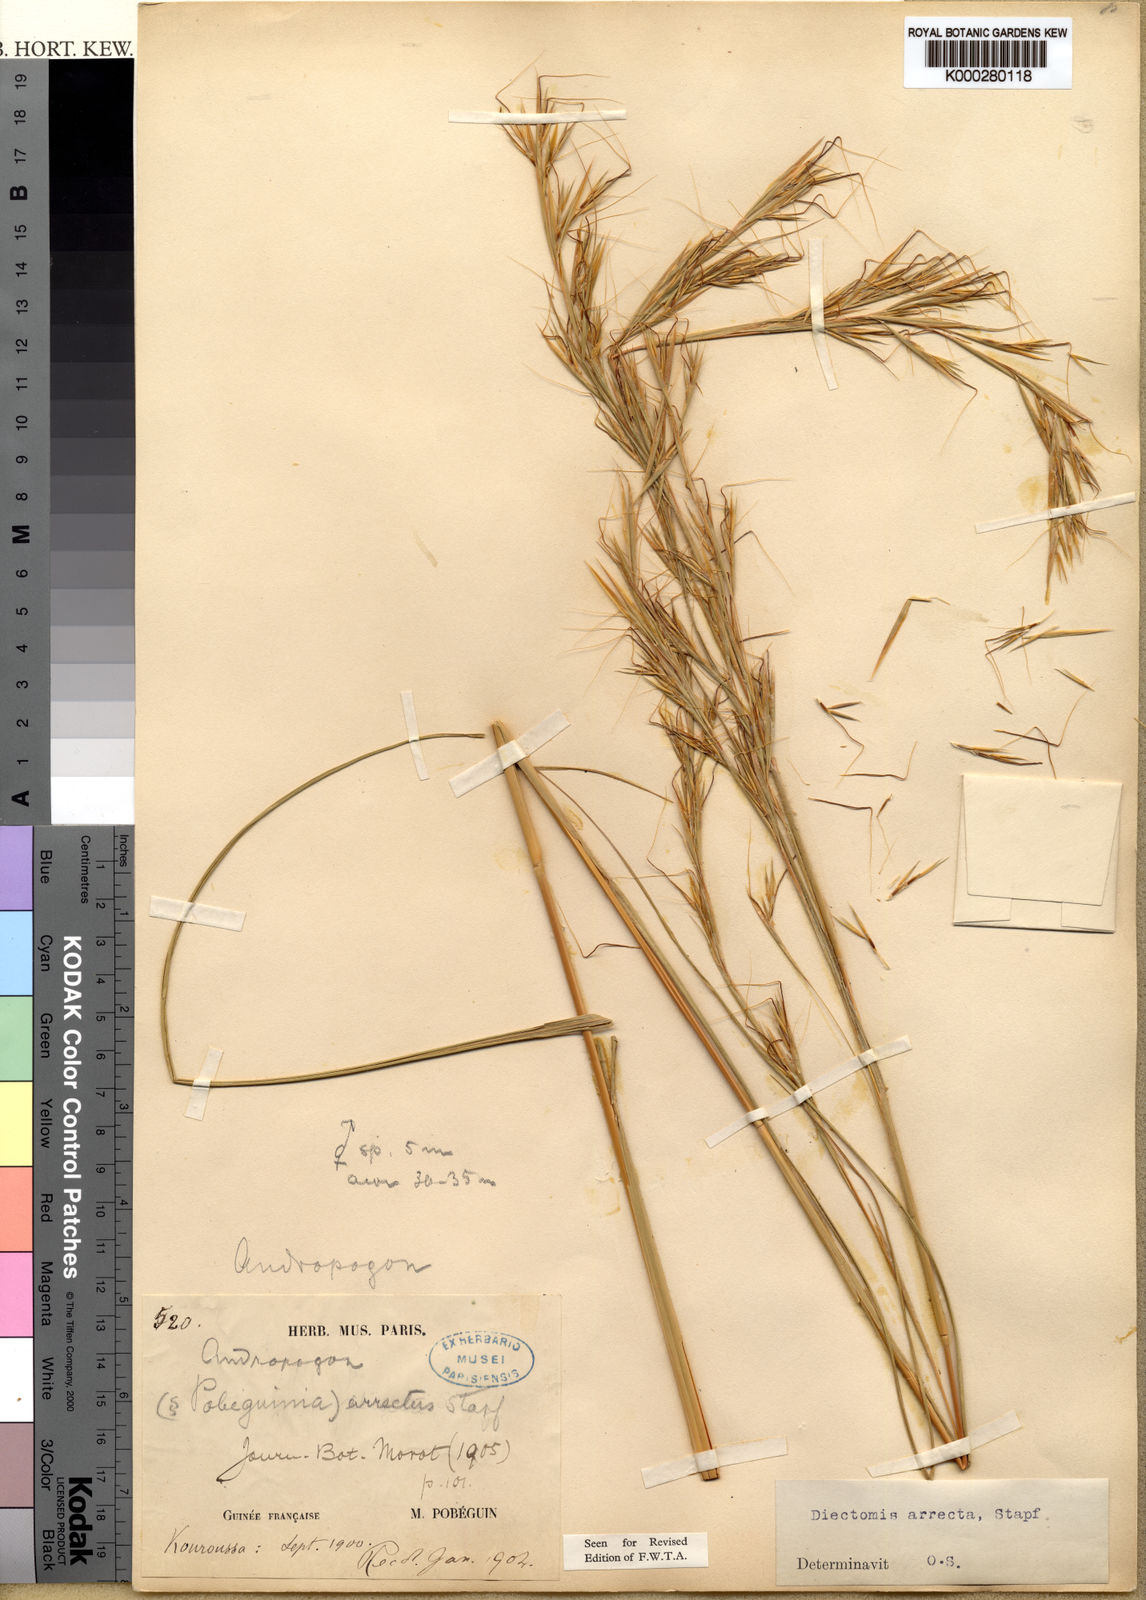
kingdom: Plantae
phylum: Tracheophyta
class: Liliopsida
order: Poales
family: Poaceae
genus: Anadelphia
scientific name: Anadelphia afzeliana
